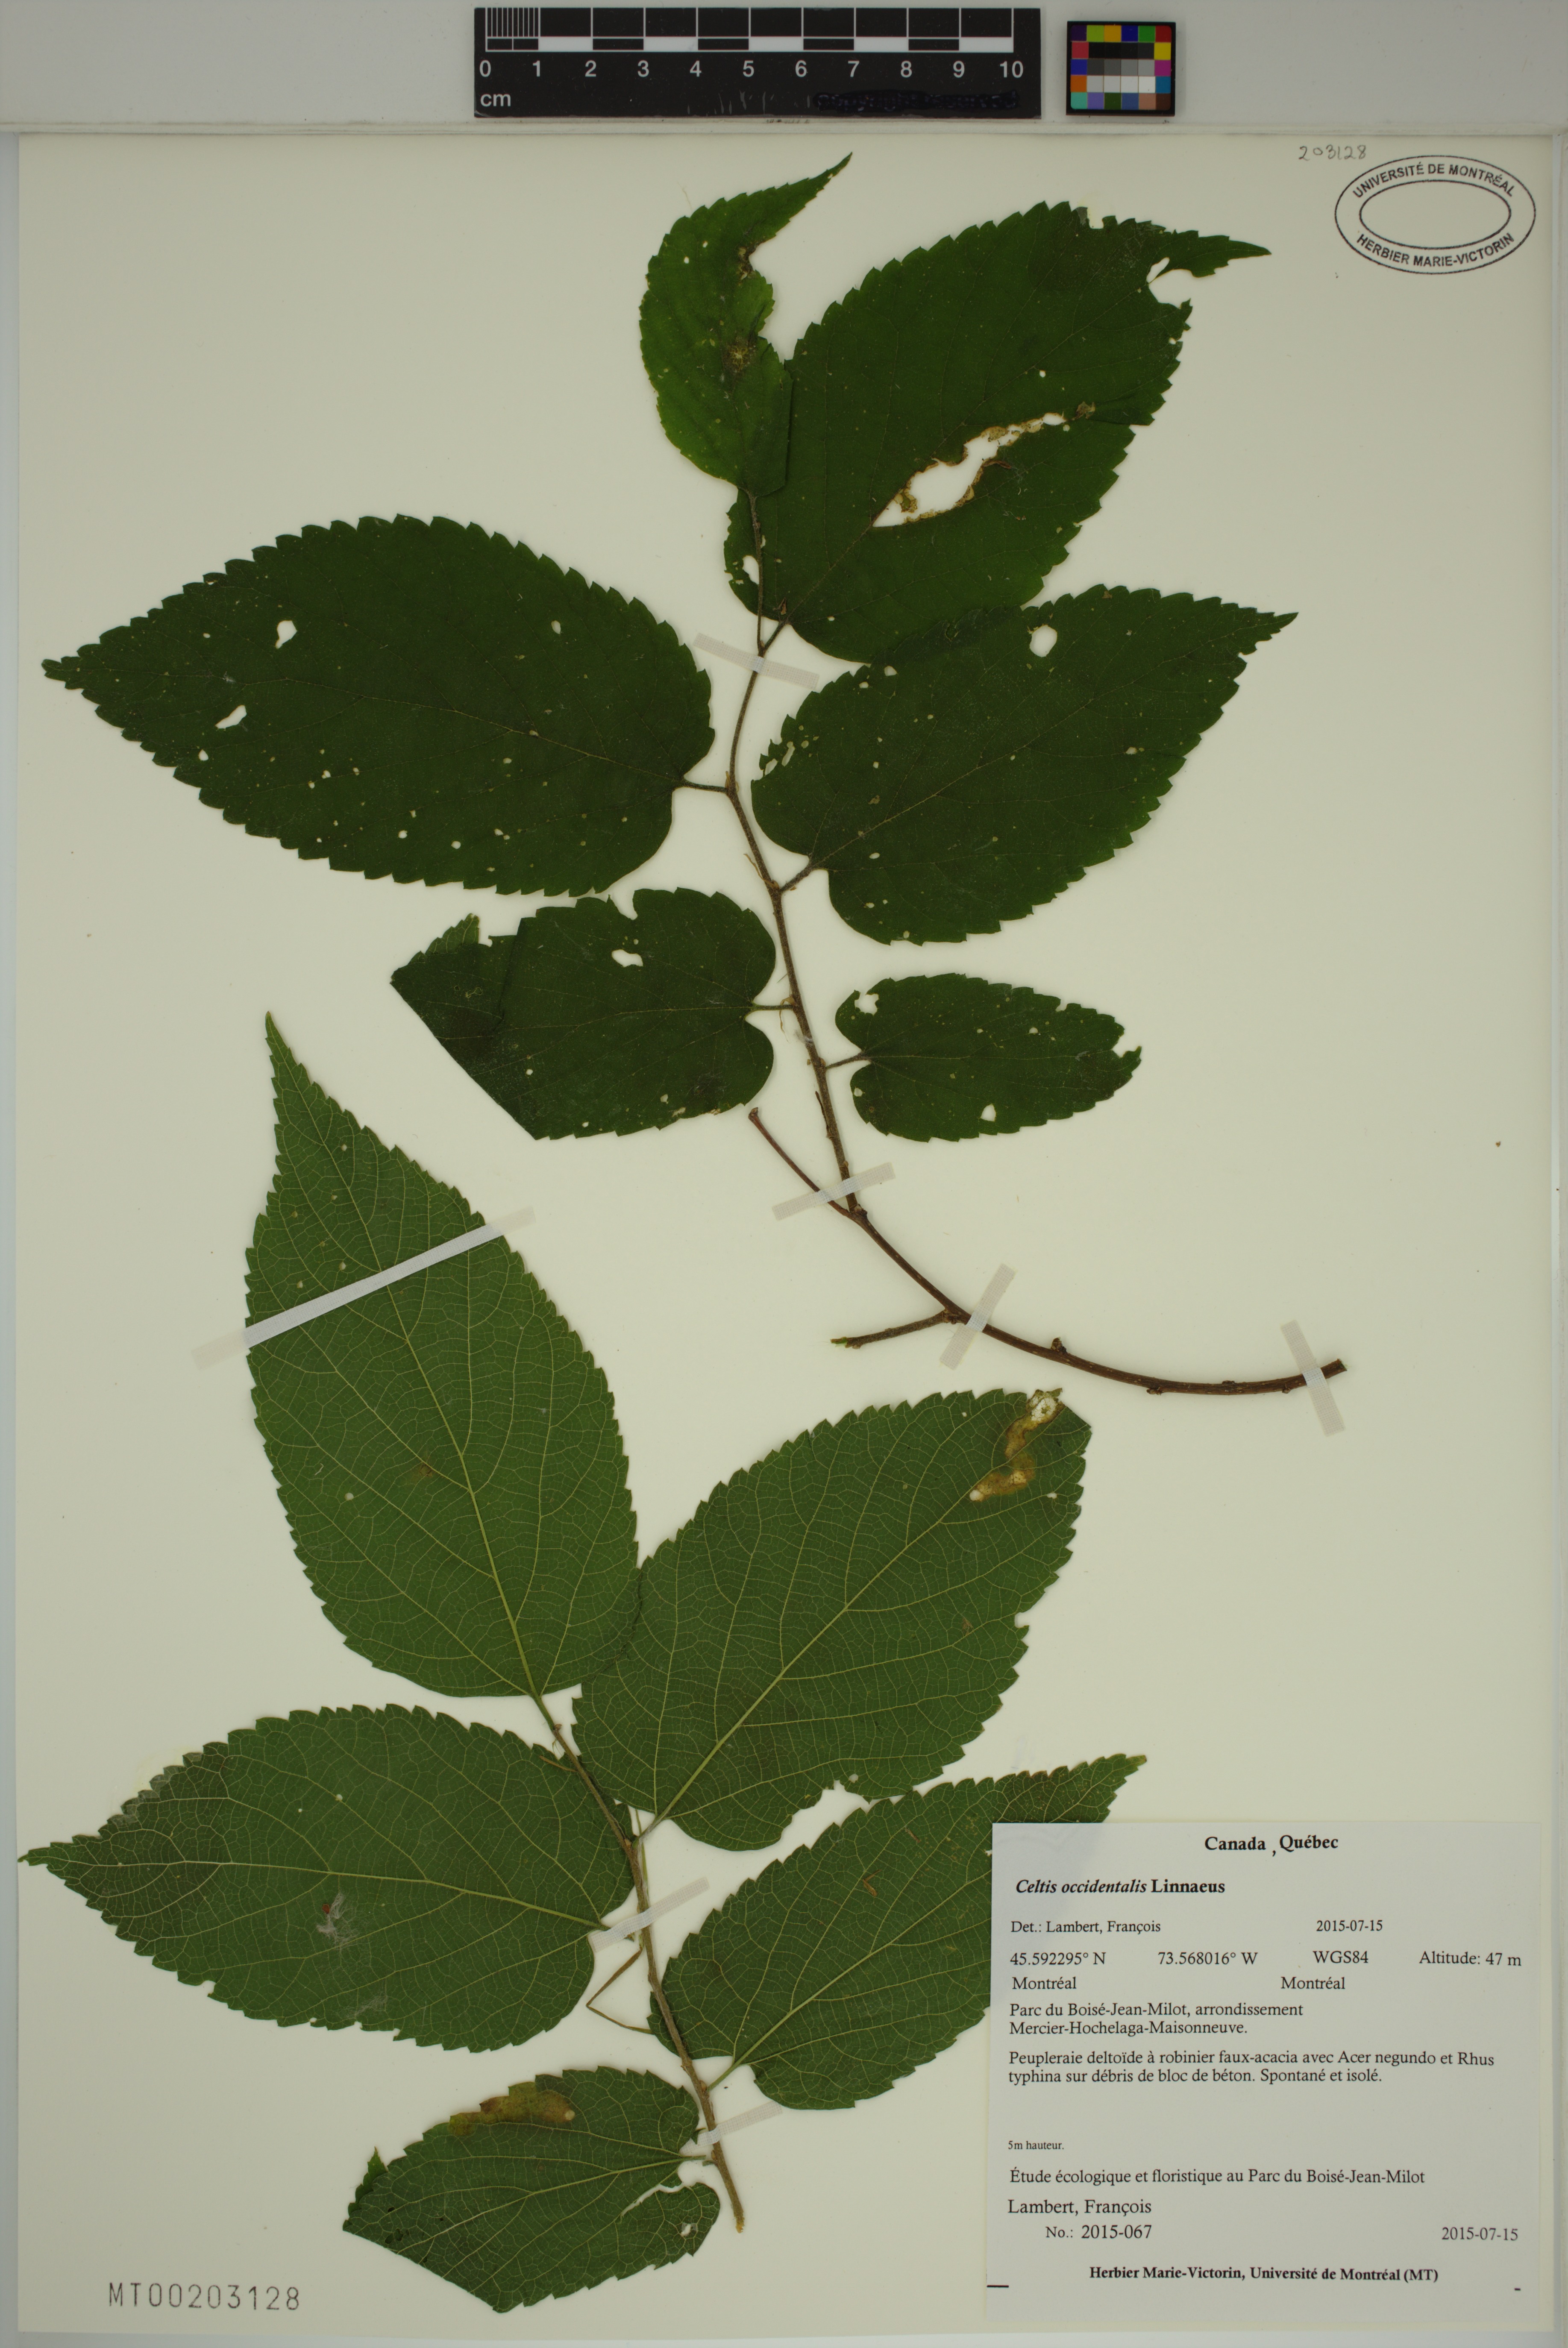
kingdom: Plantae
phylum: Tracheophyta
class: Magnoliopsida
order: Rosales
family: Cannabaceae
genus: Celtis
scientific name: Celtis occidentalis
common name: Common hackberry
